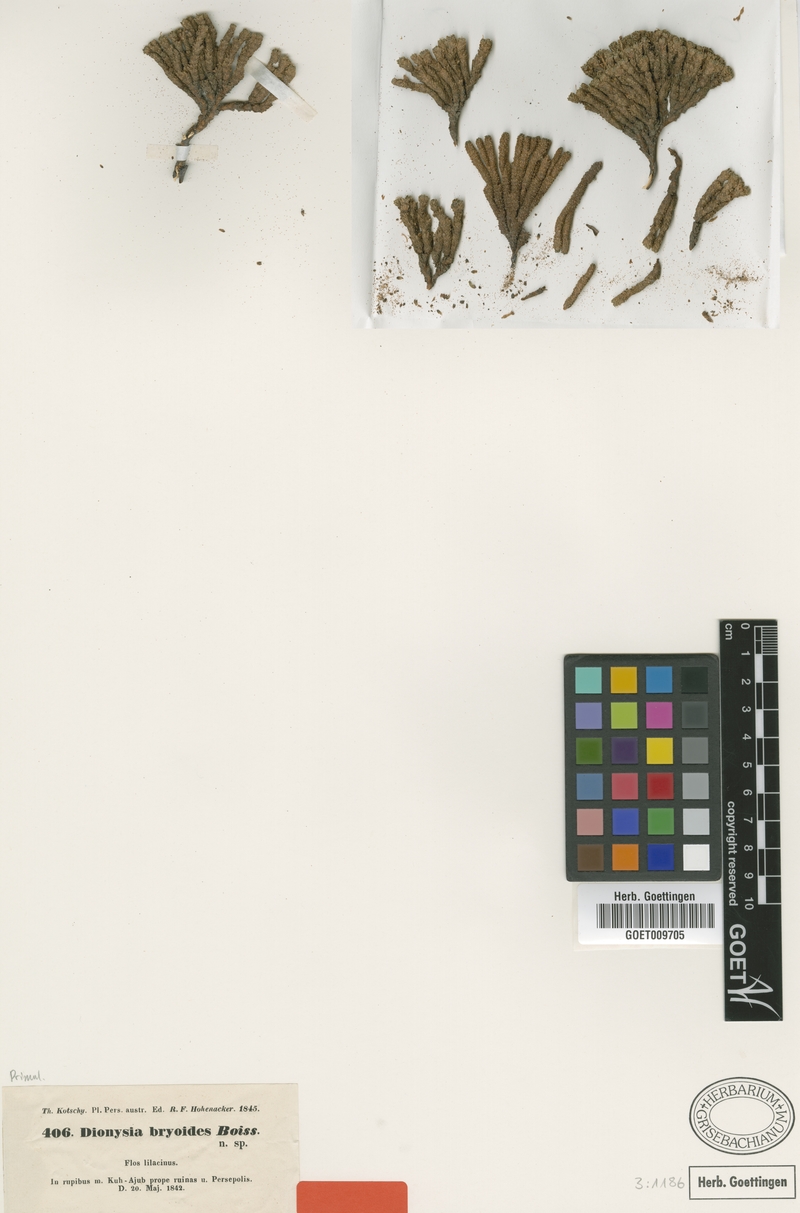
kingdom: Plantae
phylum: Tracheophyta
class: Magnoliopsida
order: Ericales
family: Primulaceae
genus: Dionysia
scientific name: Dionysia bryoides
